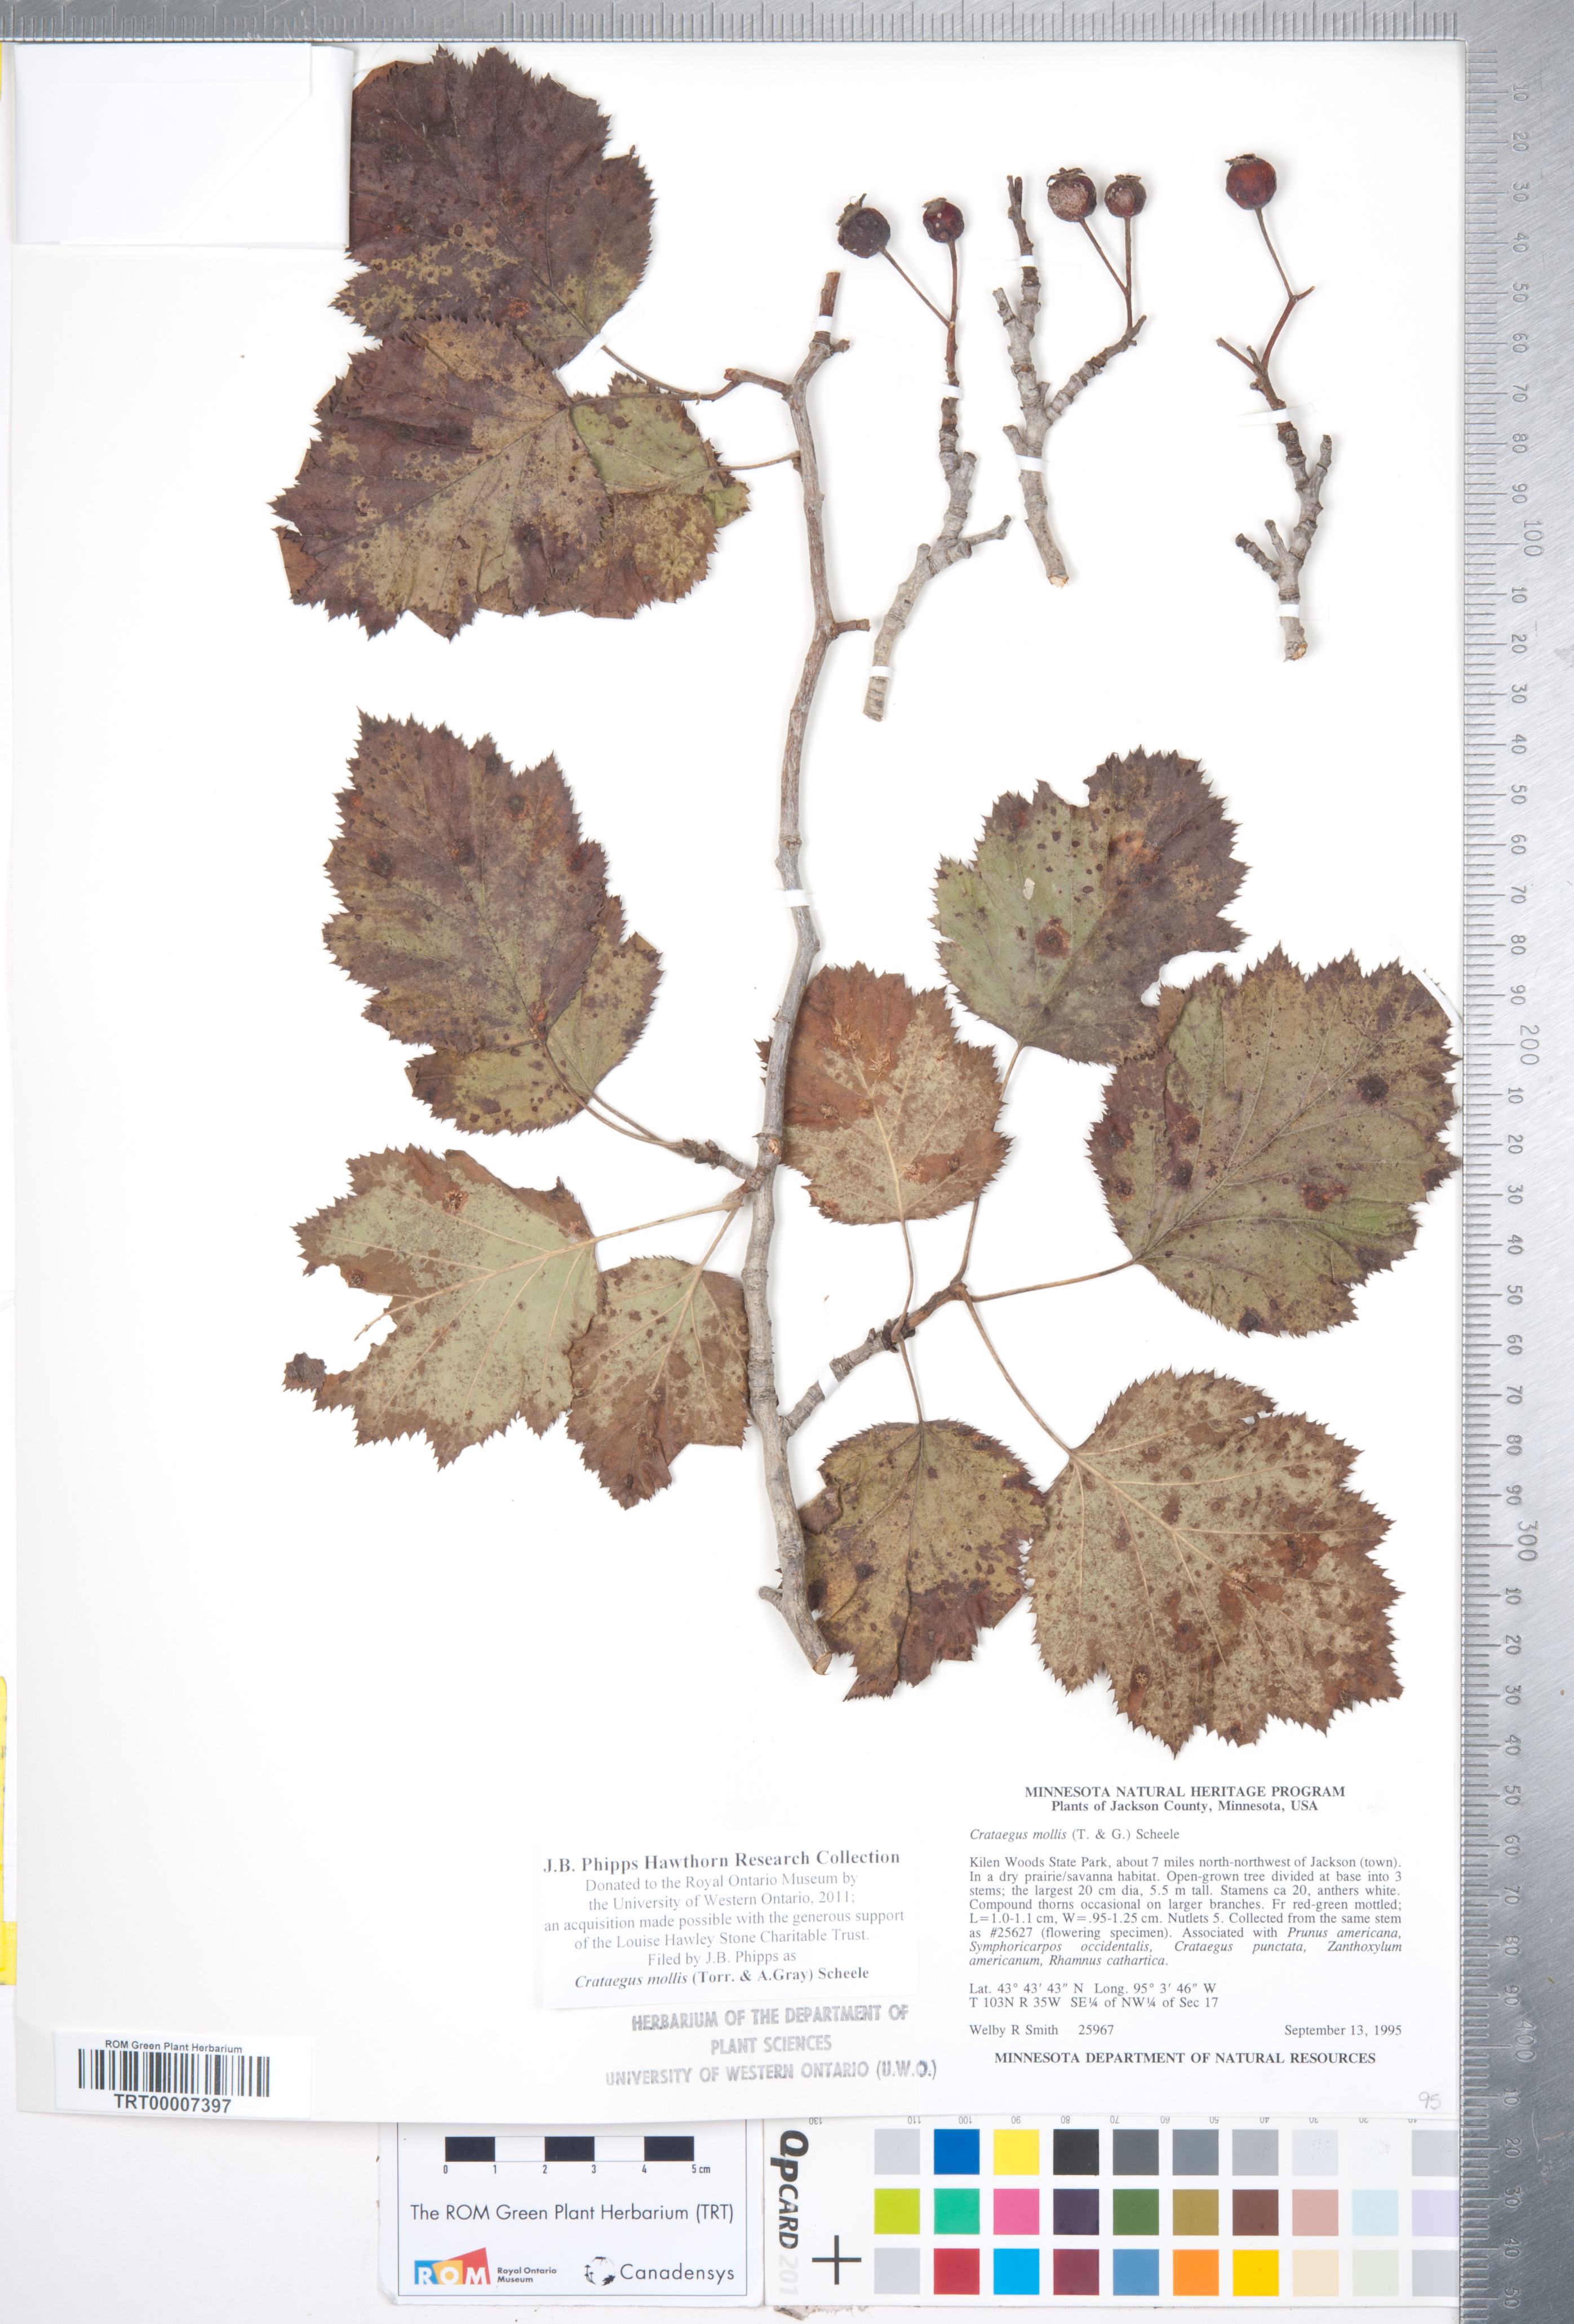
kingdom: Plantae
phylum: Tracheophyta
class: Magnoliopsida
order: Rosales
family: Rosaceae
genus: Crataegus
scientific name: Crataegus mollis
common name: Downy hawthorn
